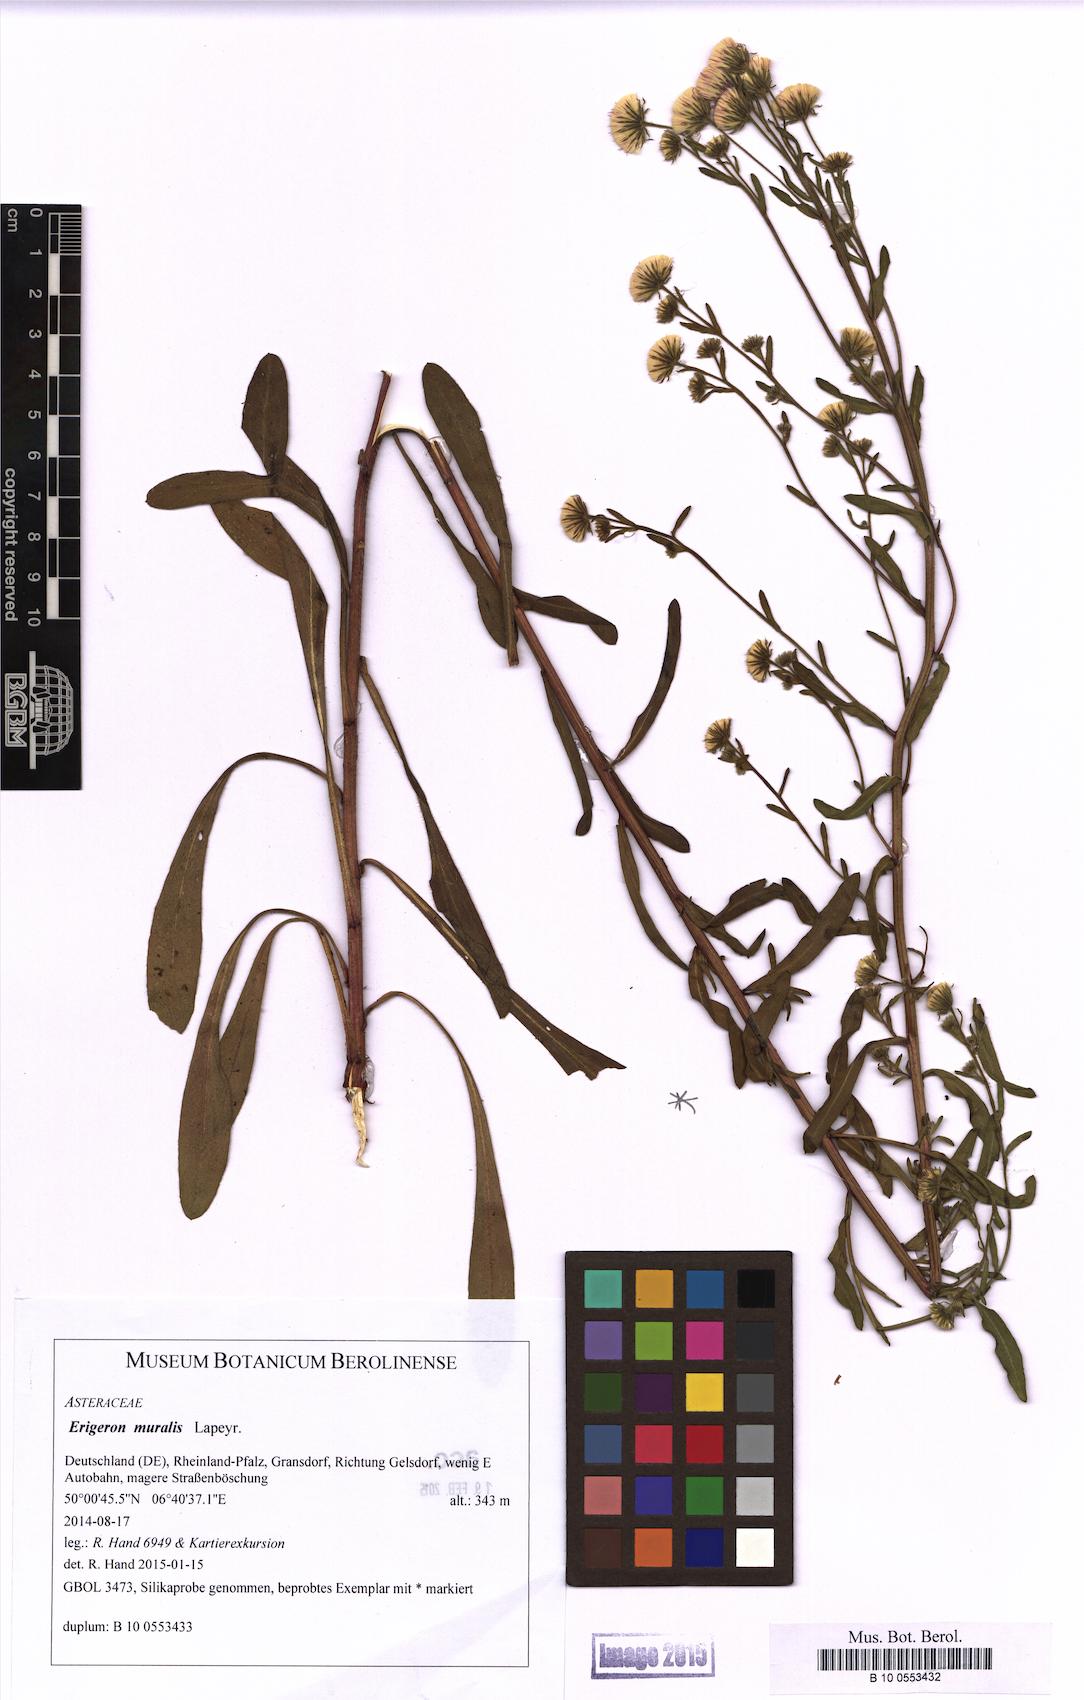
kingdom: Plantae
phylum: Tracheophyta
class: Magnoliopsida
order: Asterales
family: Asteraceae
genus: Erigeron
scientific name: Erigeron muralis
